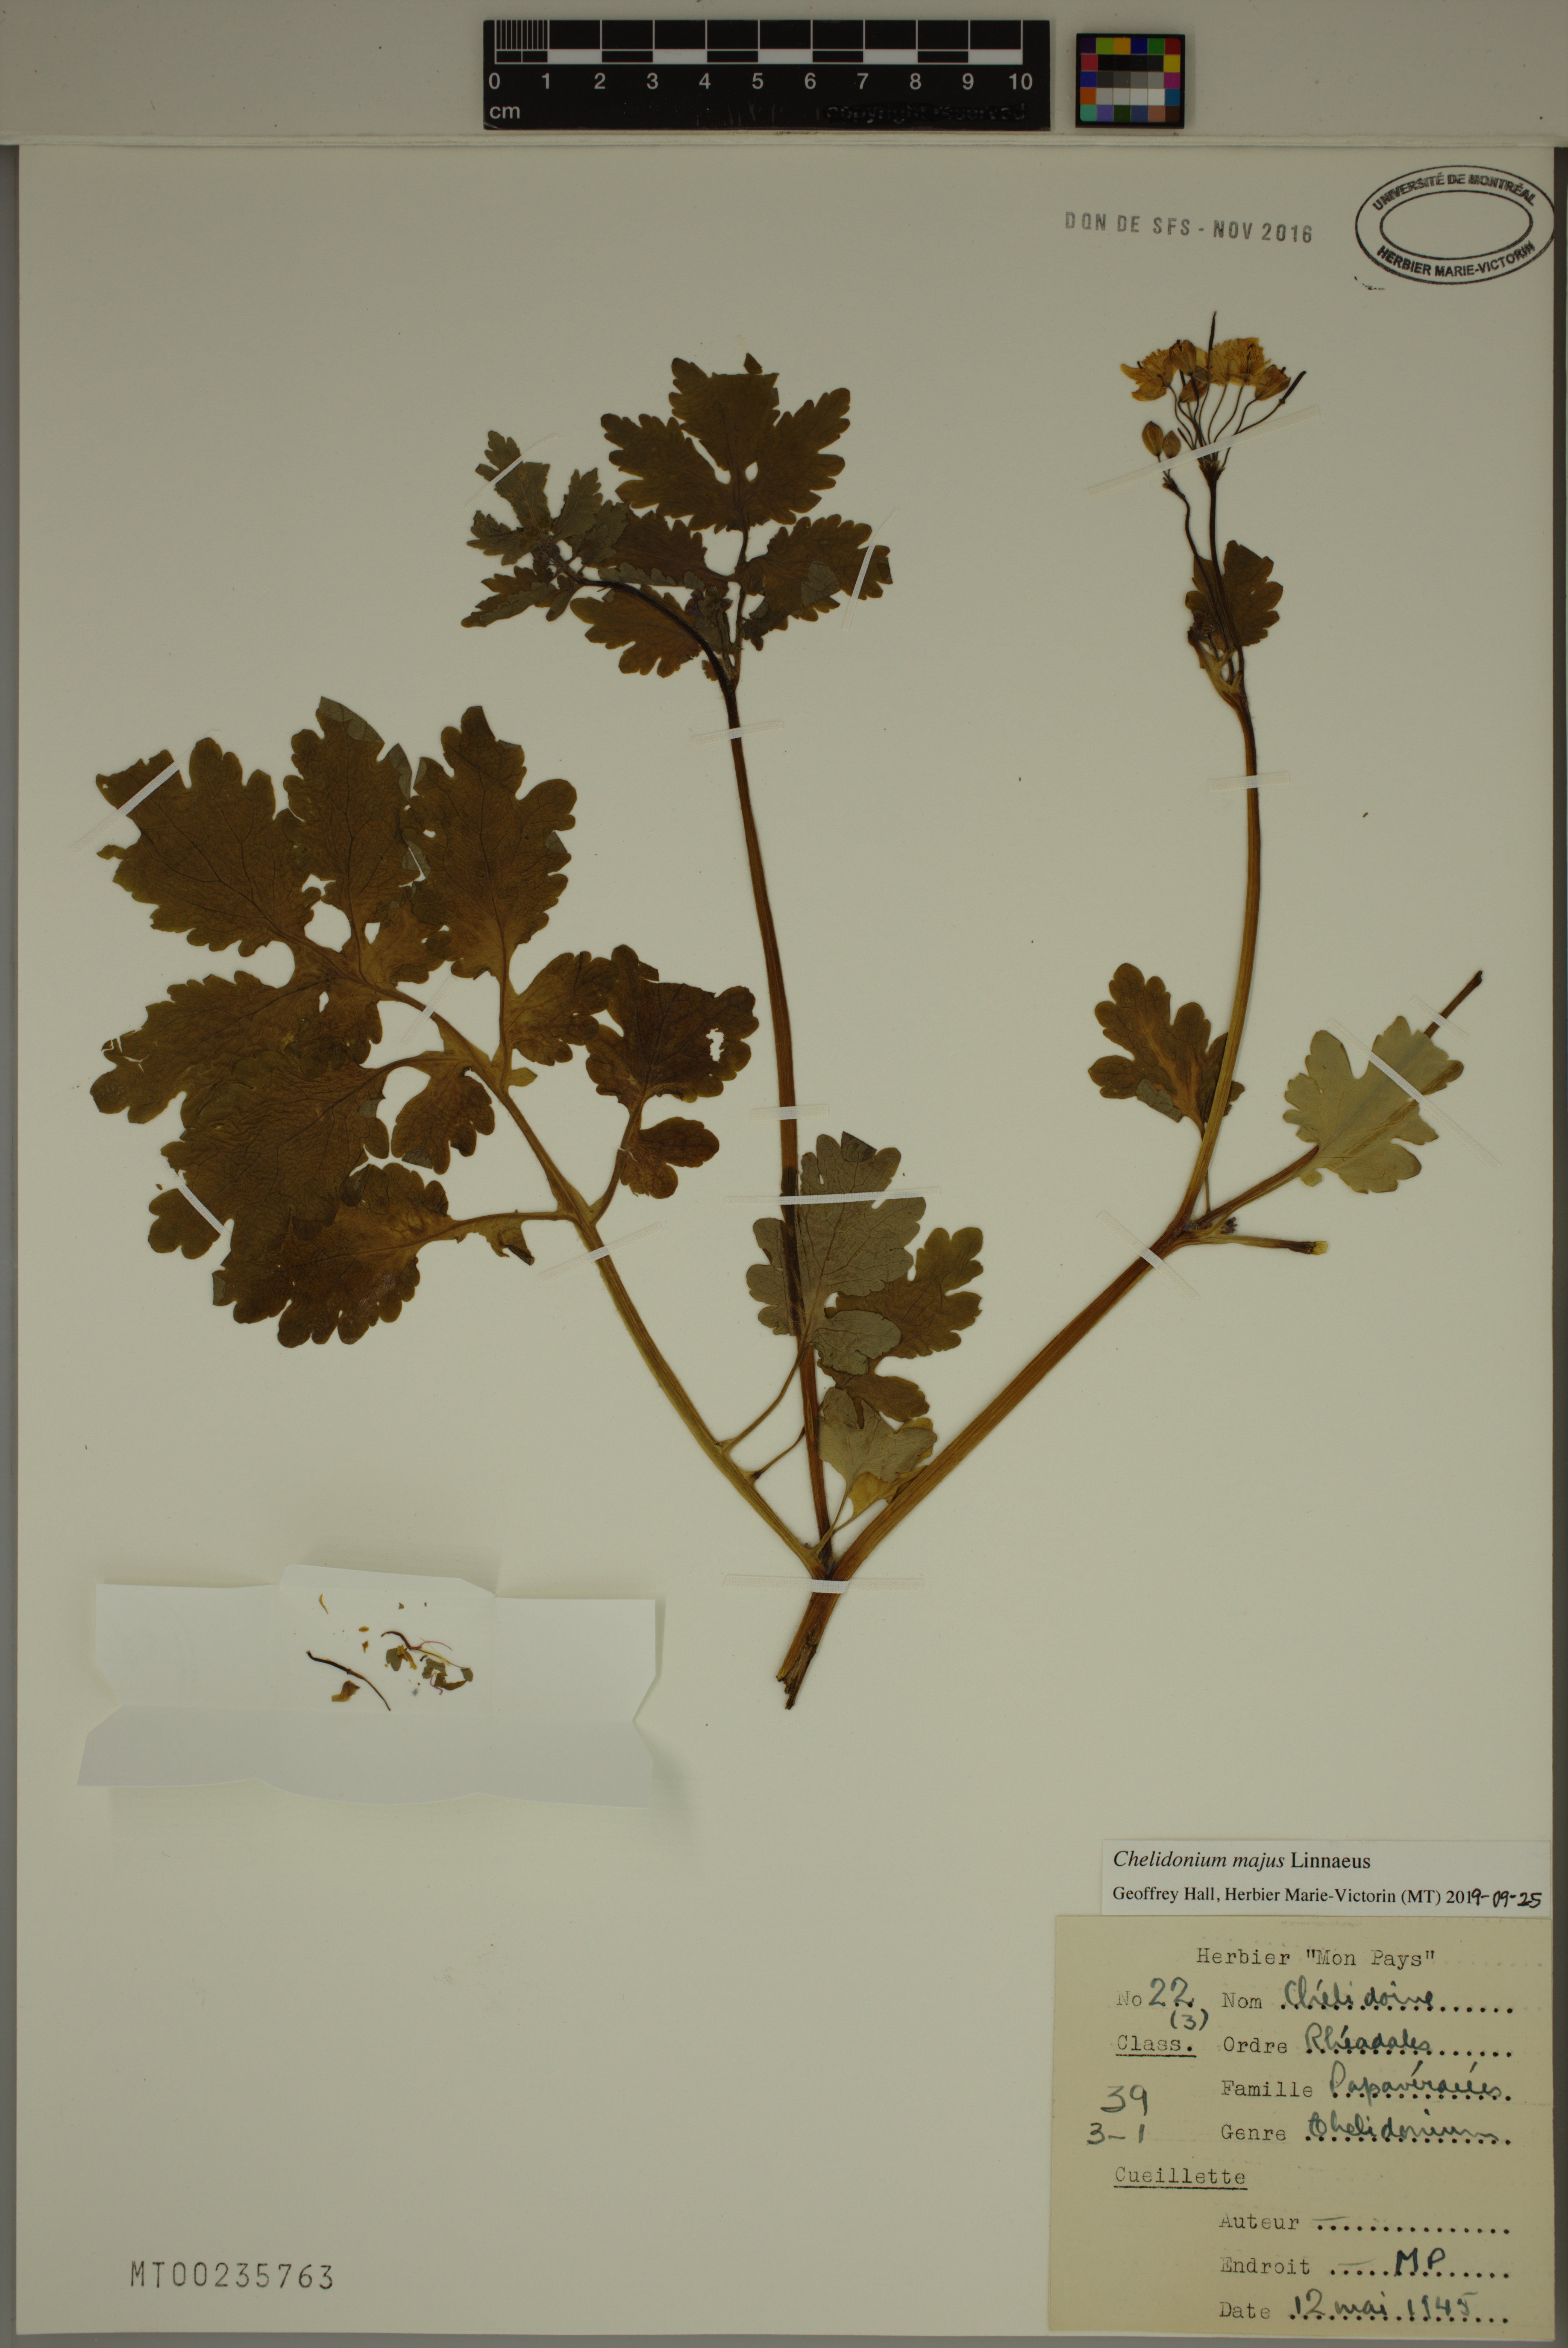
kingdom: Plantae
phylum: Tracheophyta
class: Magnoliopsida
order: Ranunculales
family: Papaveraceae
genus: Chelidonium
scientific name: Chelidonium majus
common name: Greater celandine
